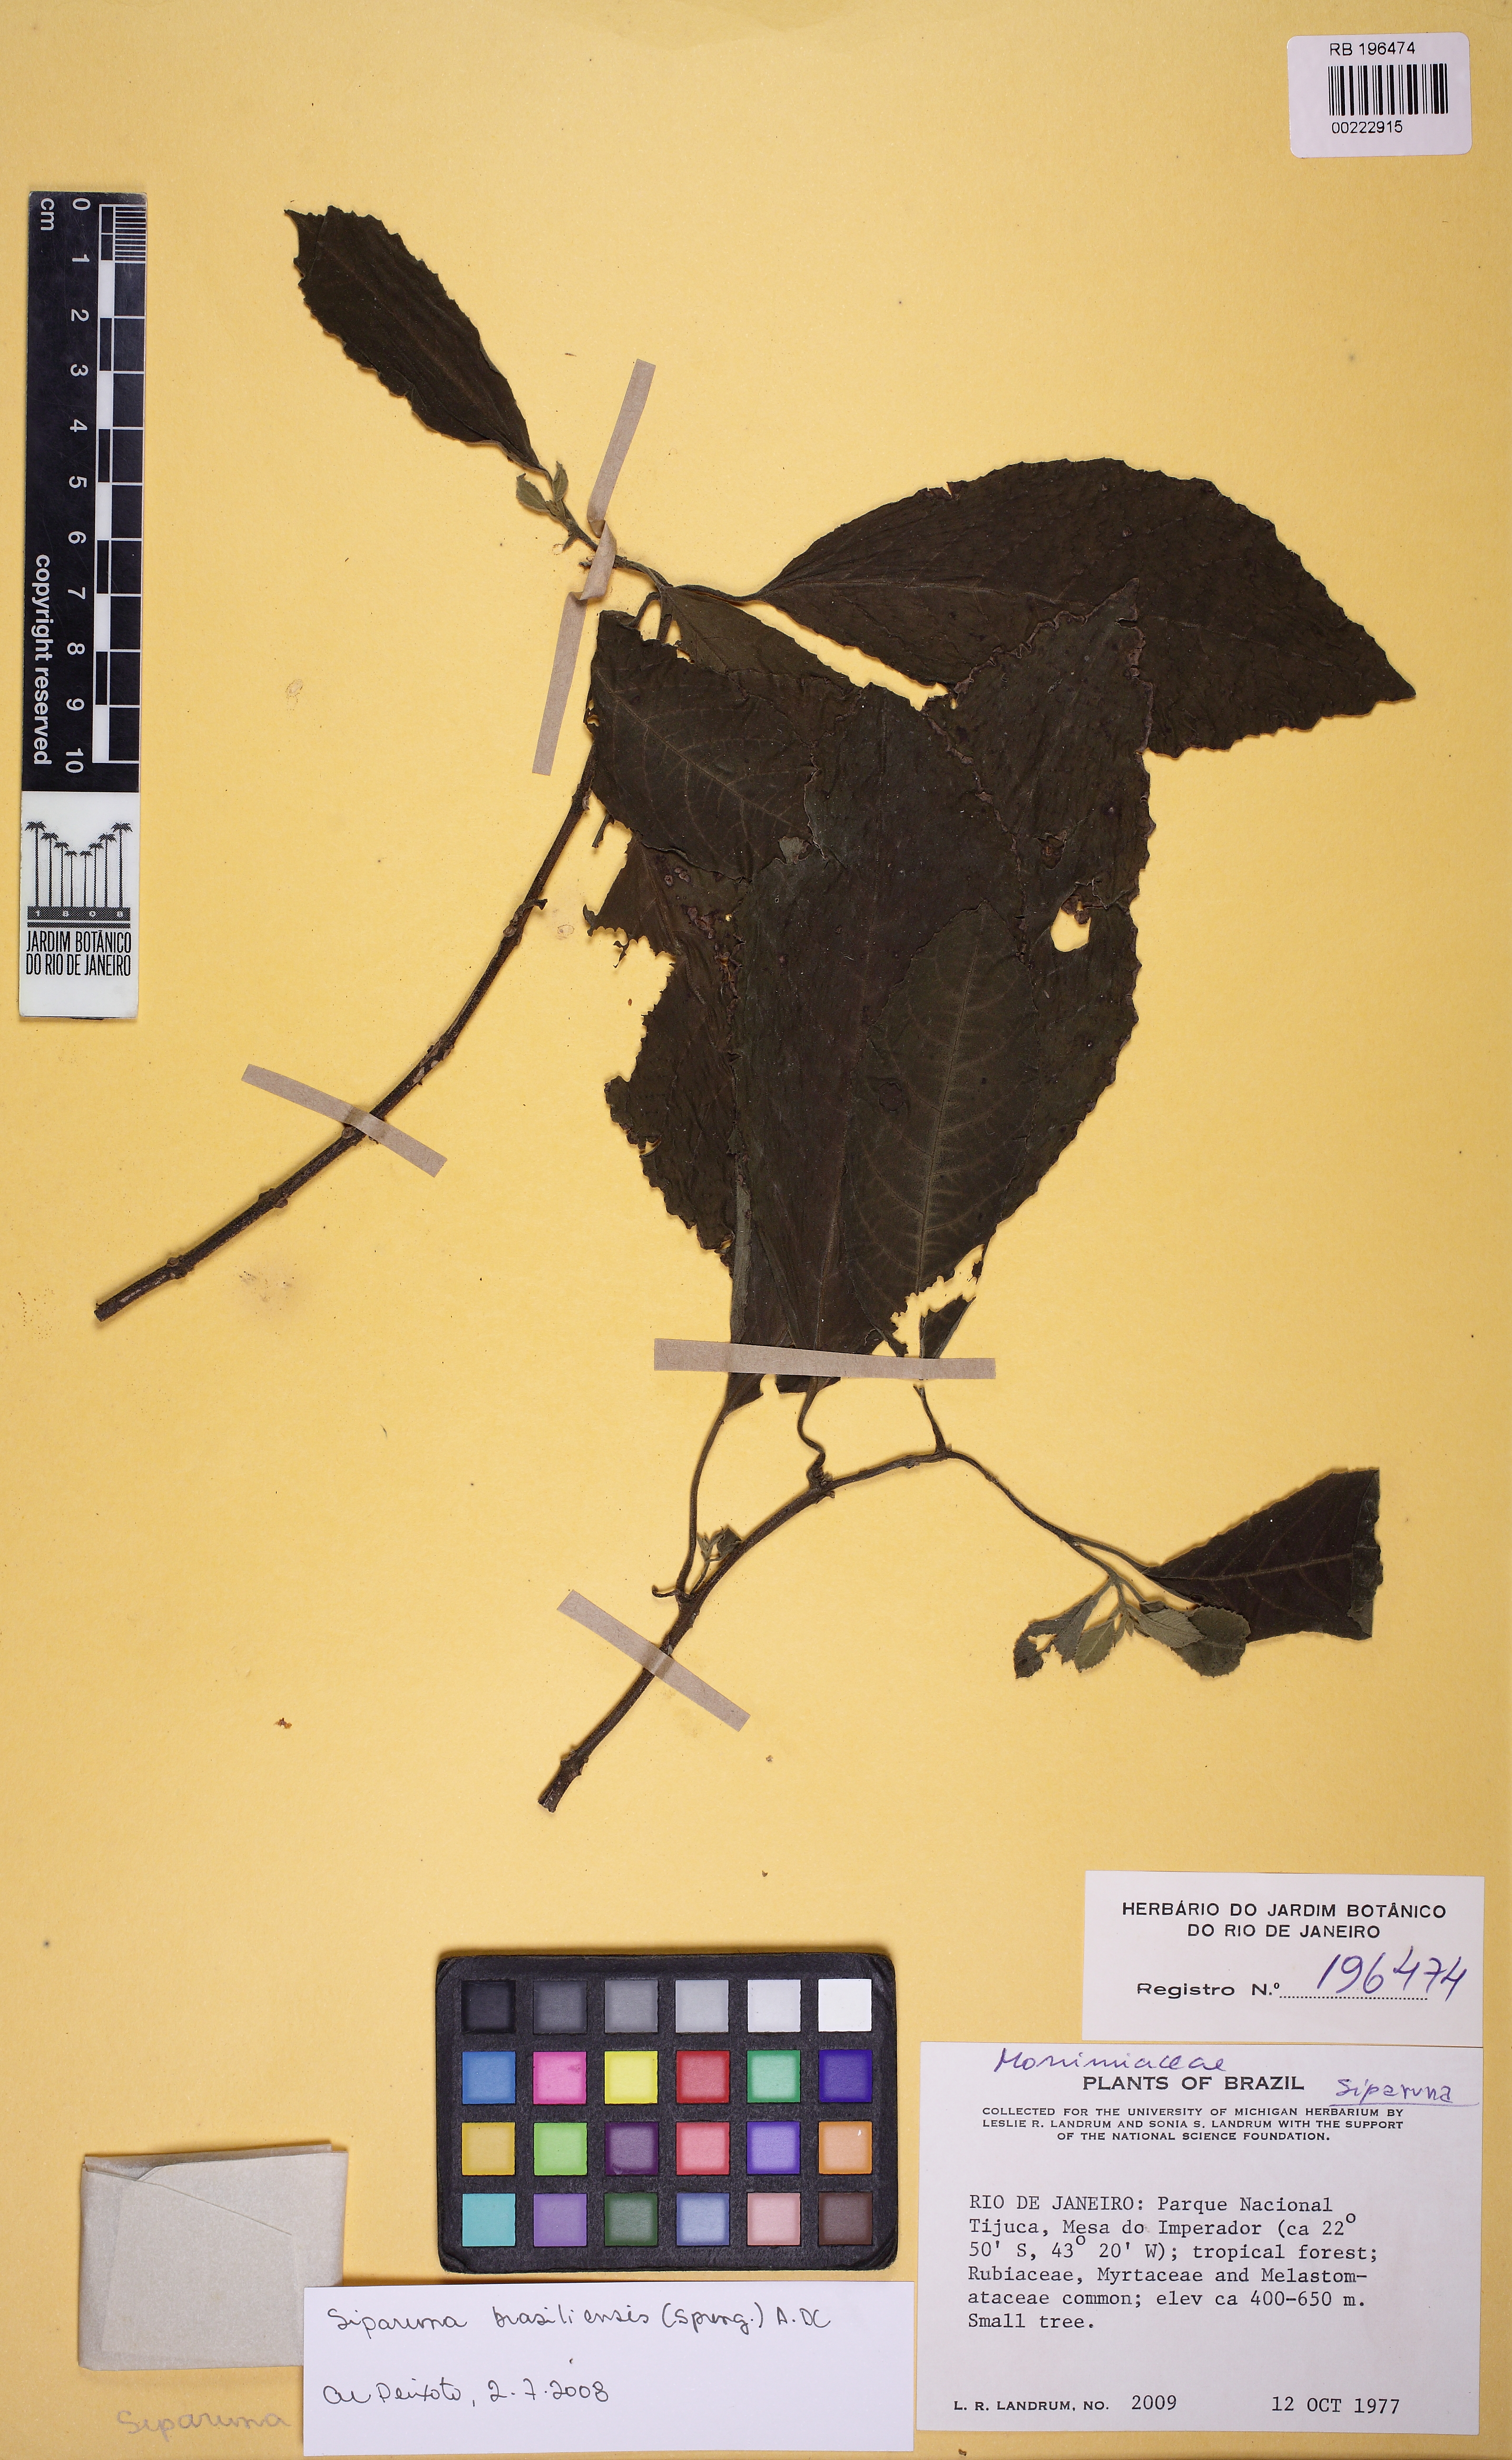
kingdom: Plantae
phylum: Tracheophyta
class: Magnoliopsida
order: Laurales
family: Siparunaceae
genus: Siparuna
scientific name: Siparuna brasiliensis
